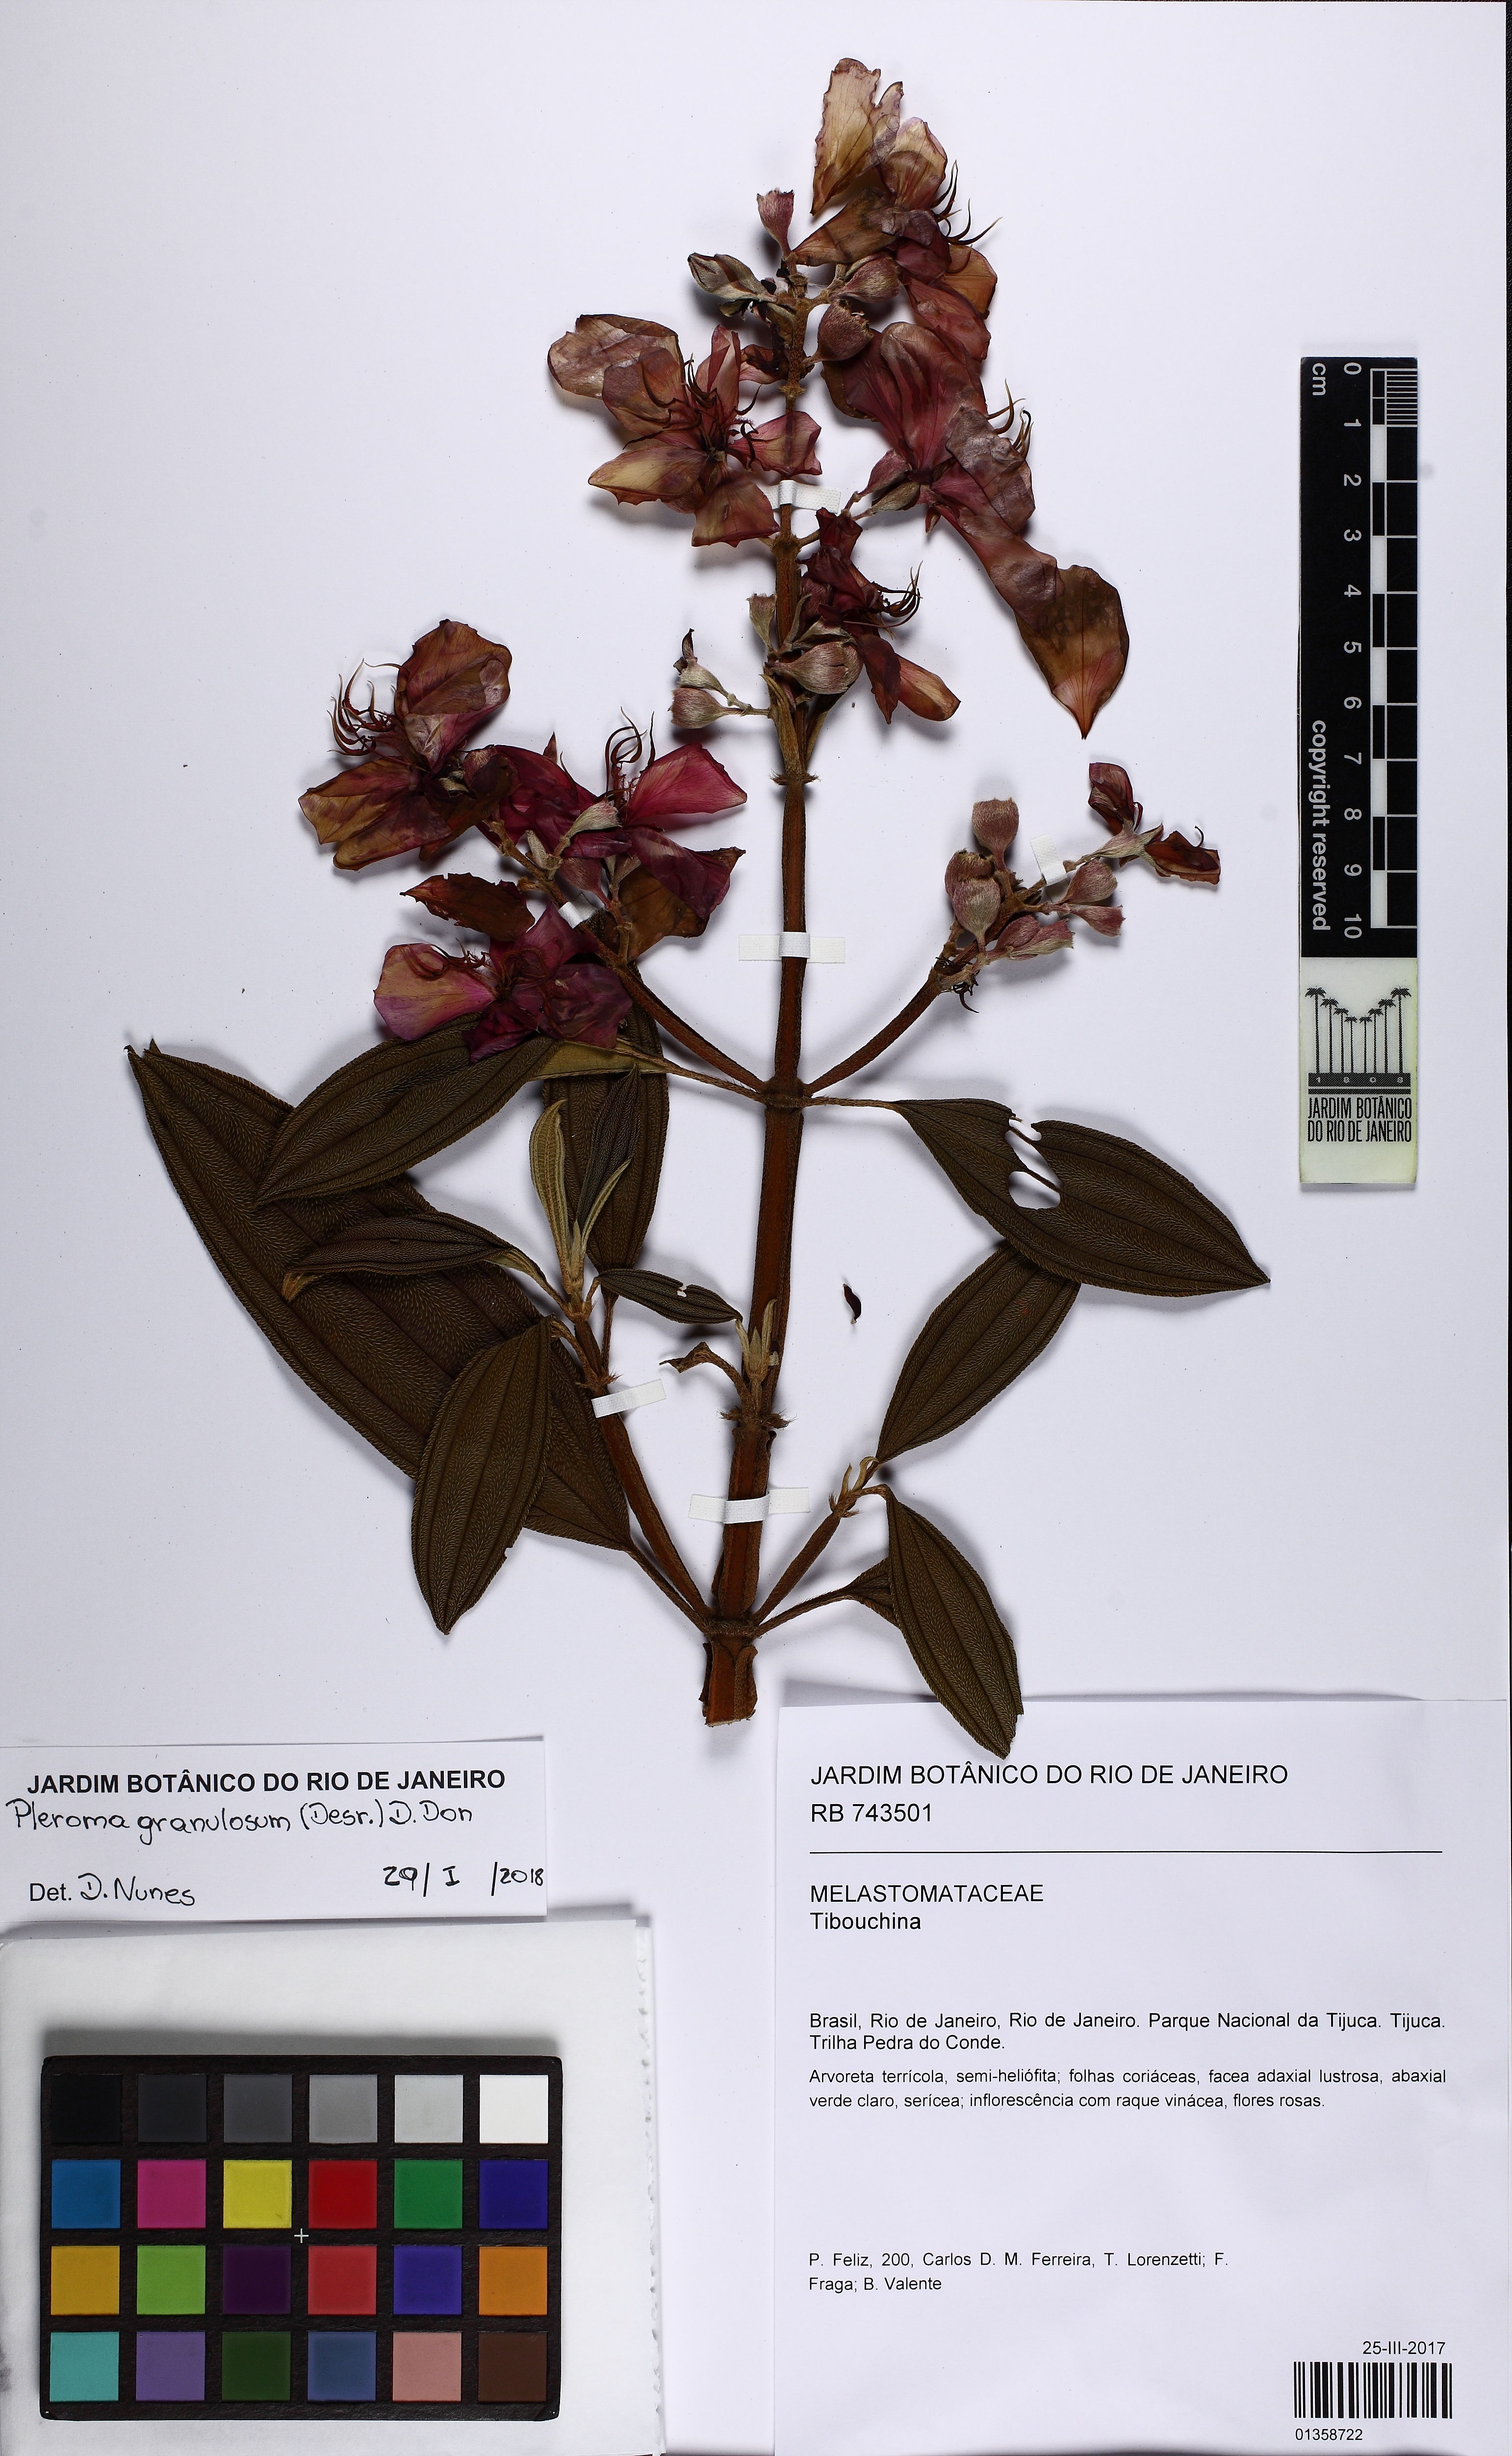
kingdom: Plantae
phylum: Tracheophyta
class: Magnoliopsida
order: Myrtales
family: Melastomataceae
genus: Pleroma
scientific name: Pleroma granulosum
